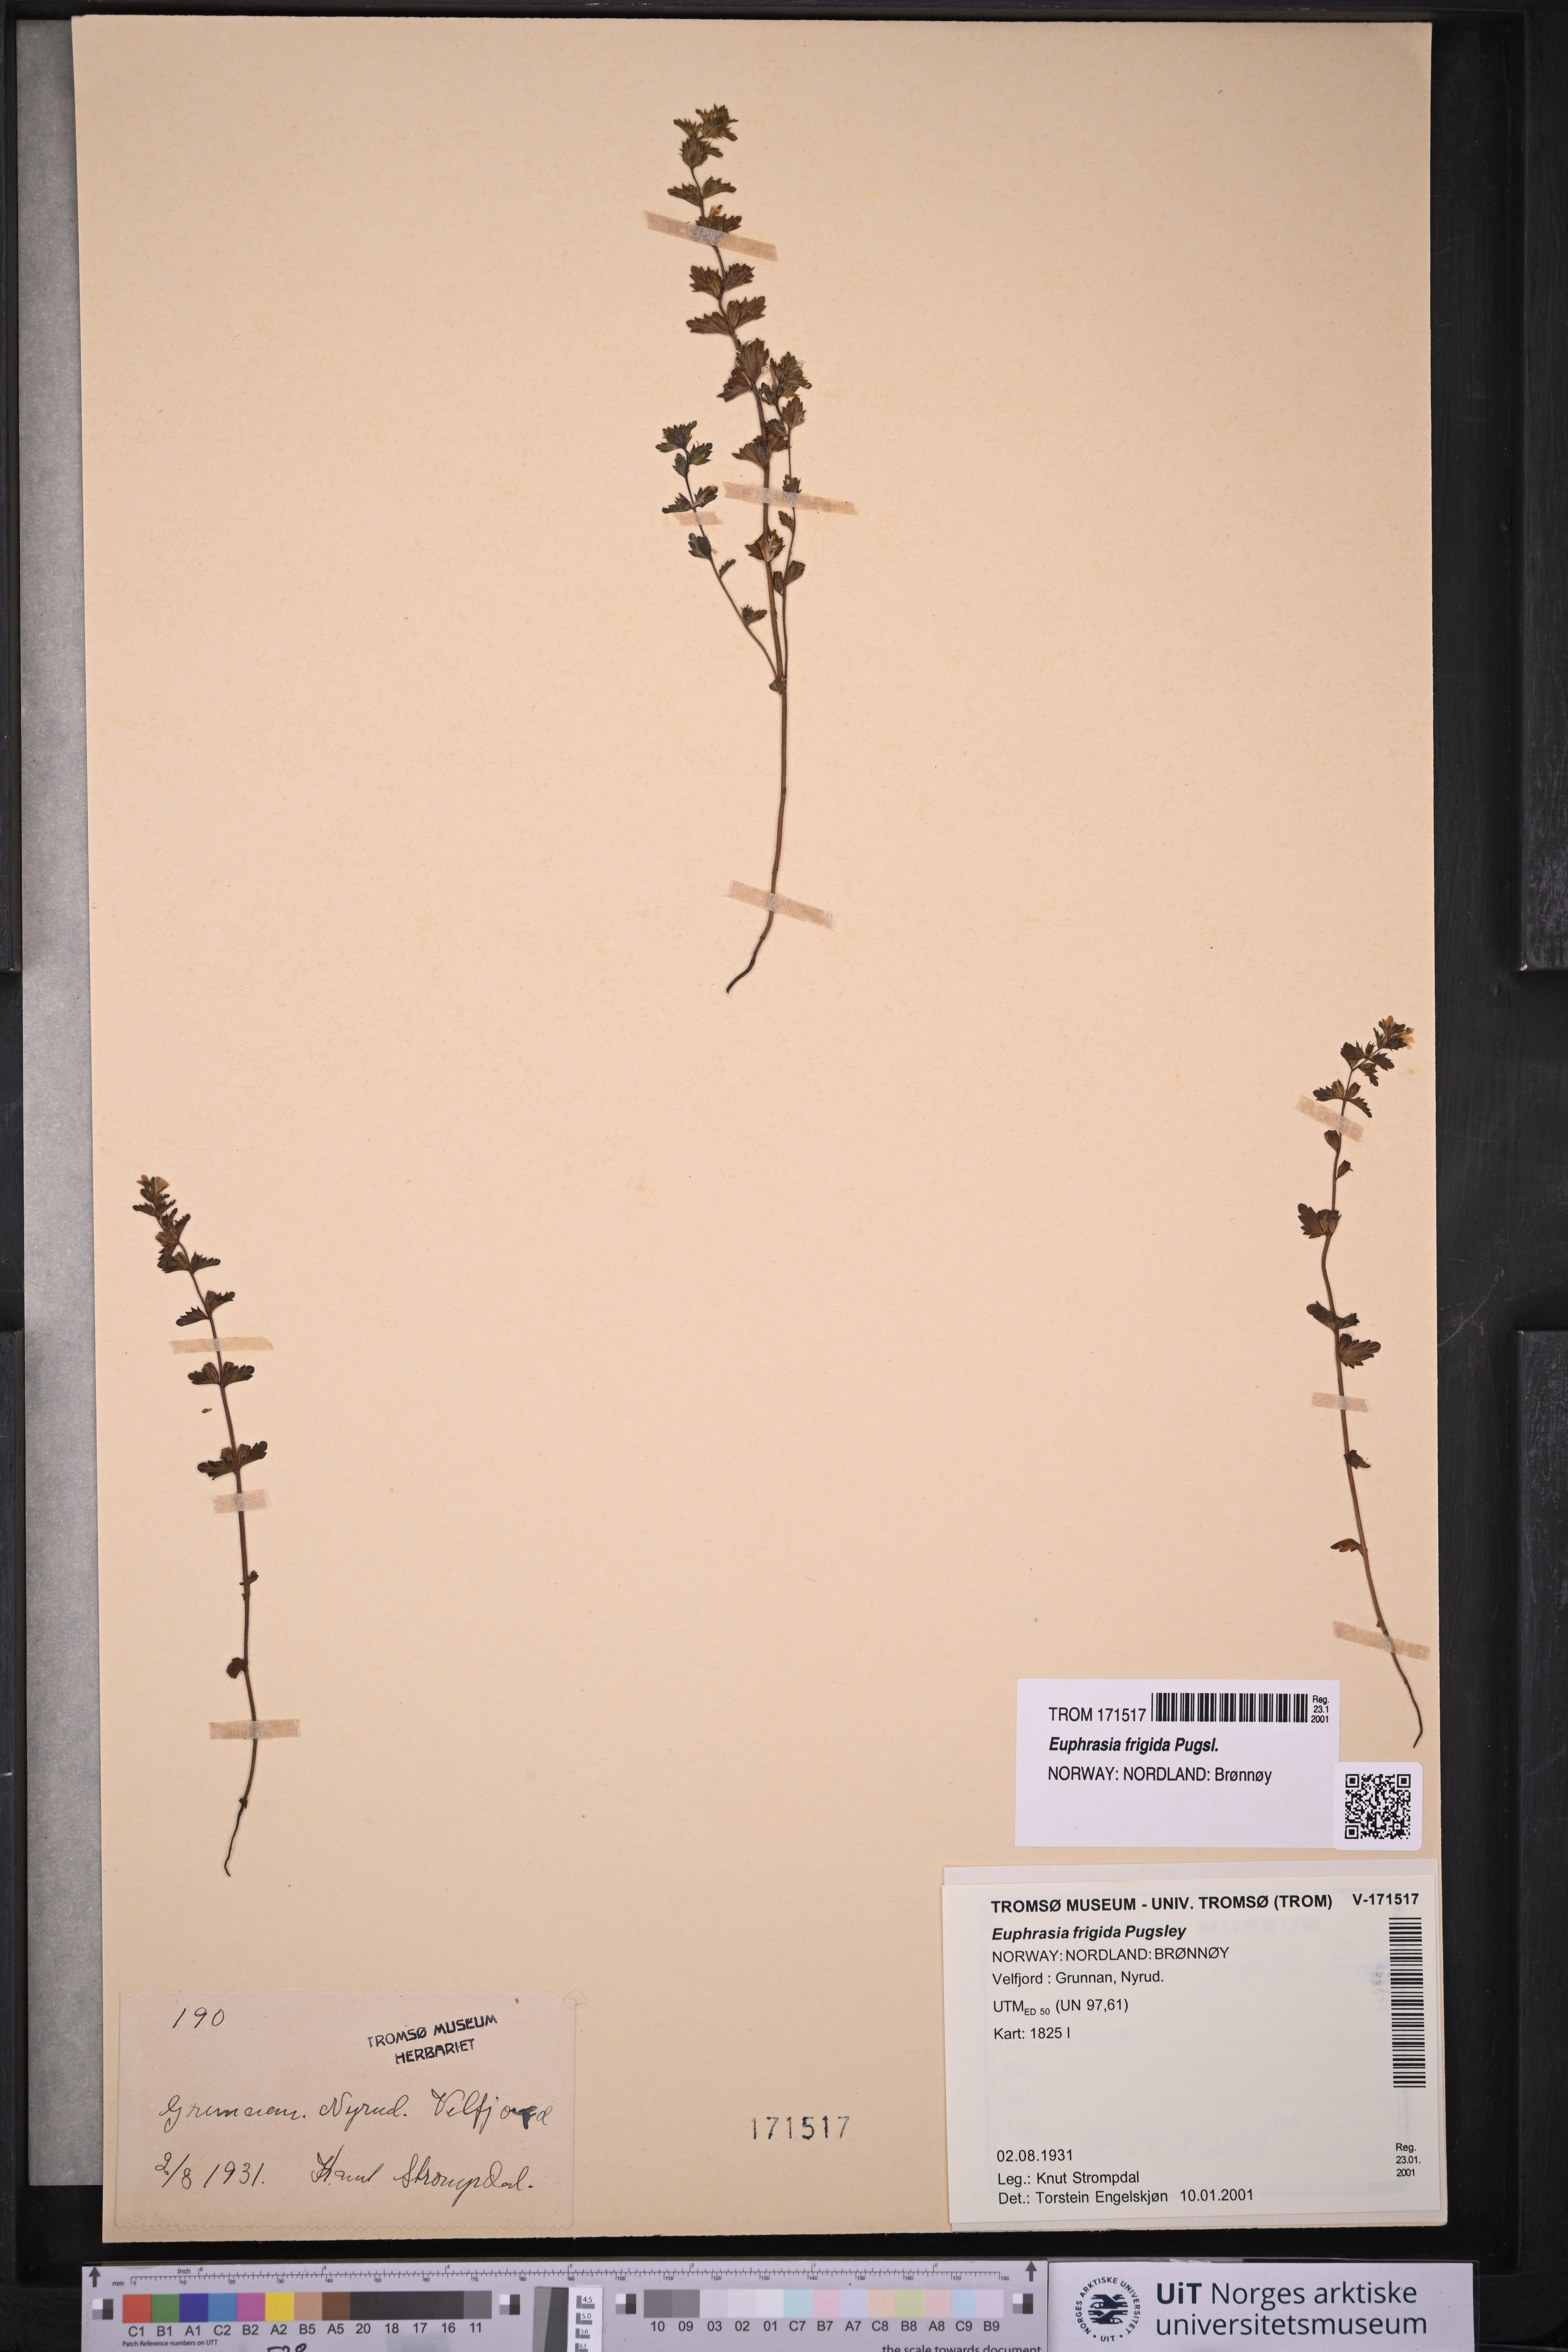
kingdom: Plantae
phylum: Tracheophyta
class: Magnoliopsida
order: Lamiales
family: Orobanchaceae
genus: Euphrasia
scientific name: Euphrasia frigida
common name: An eyebright
